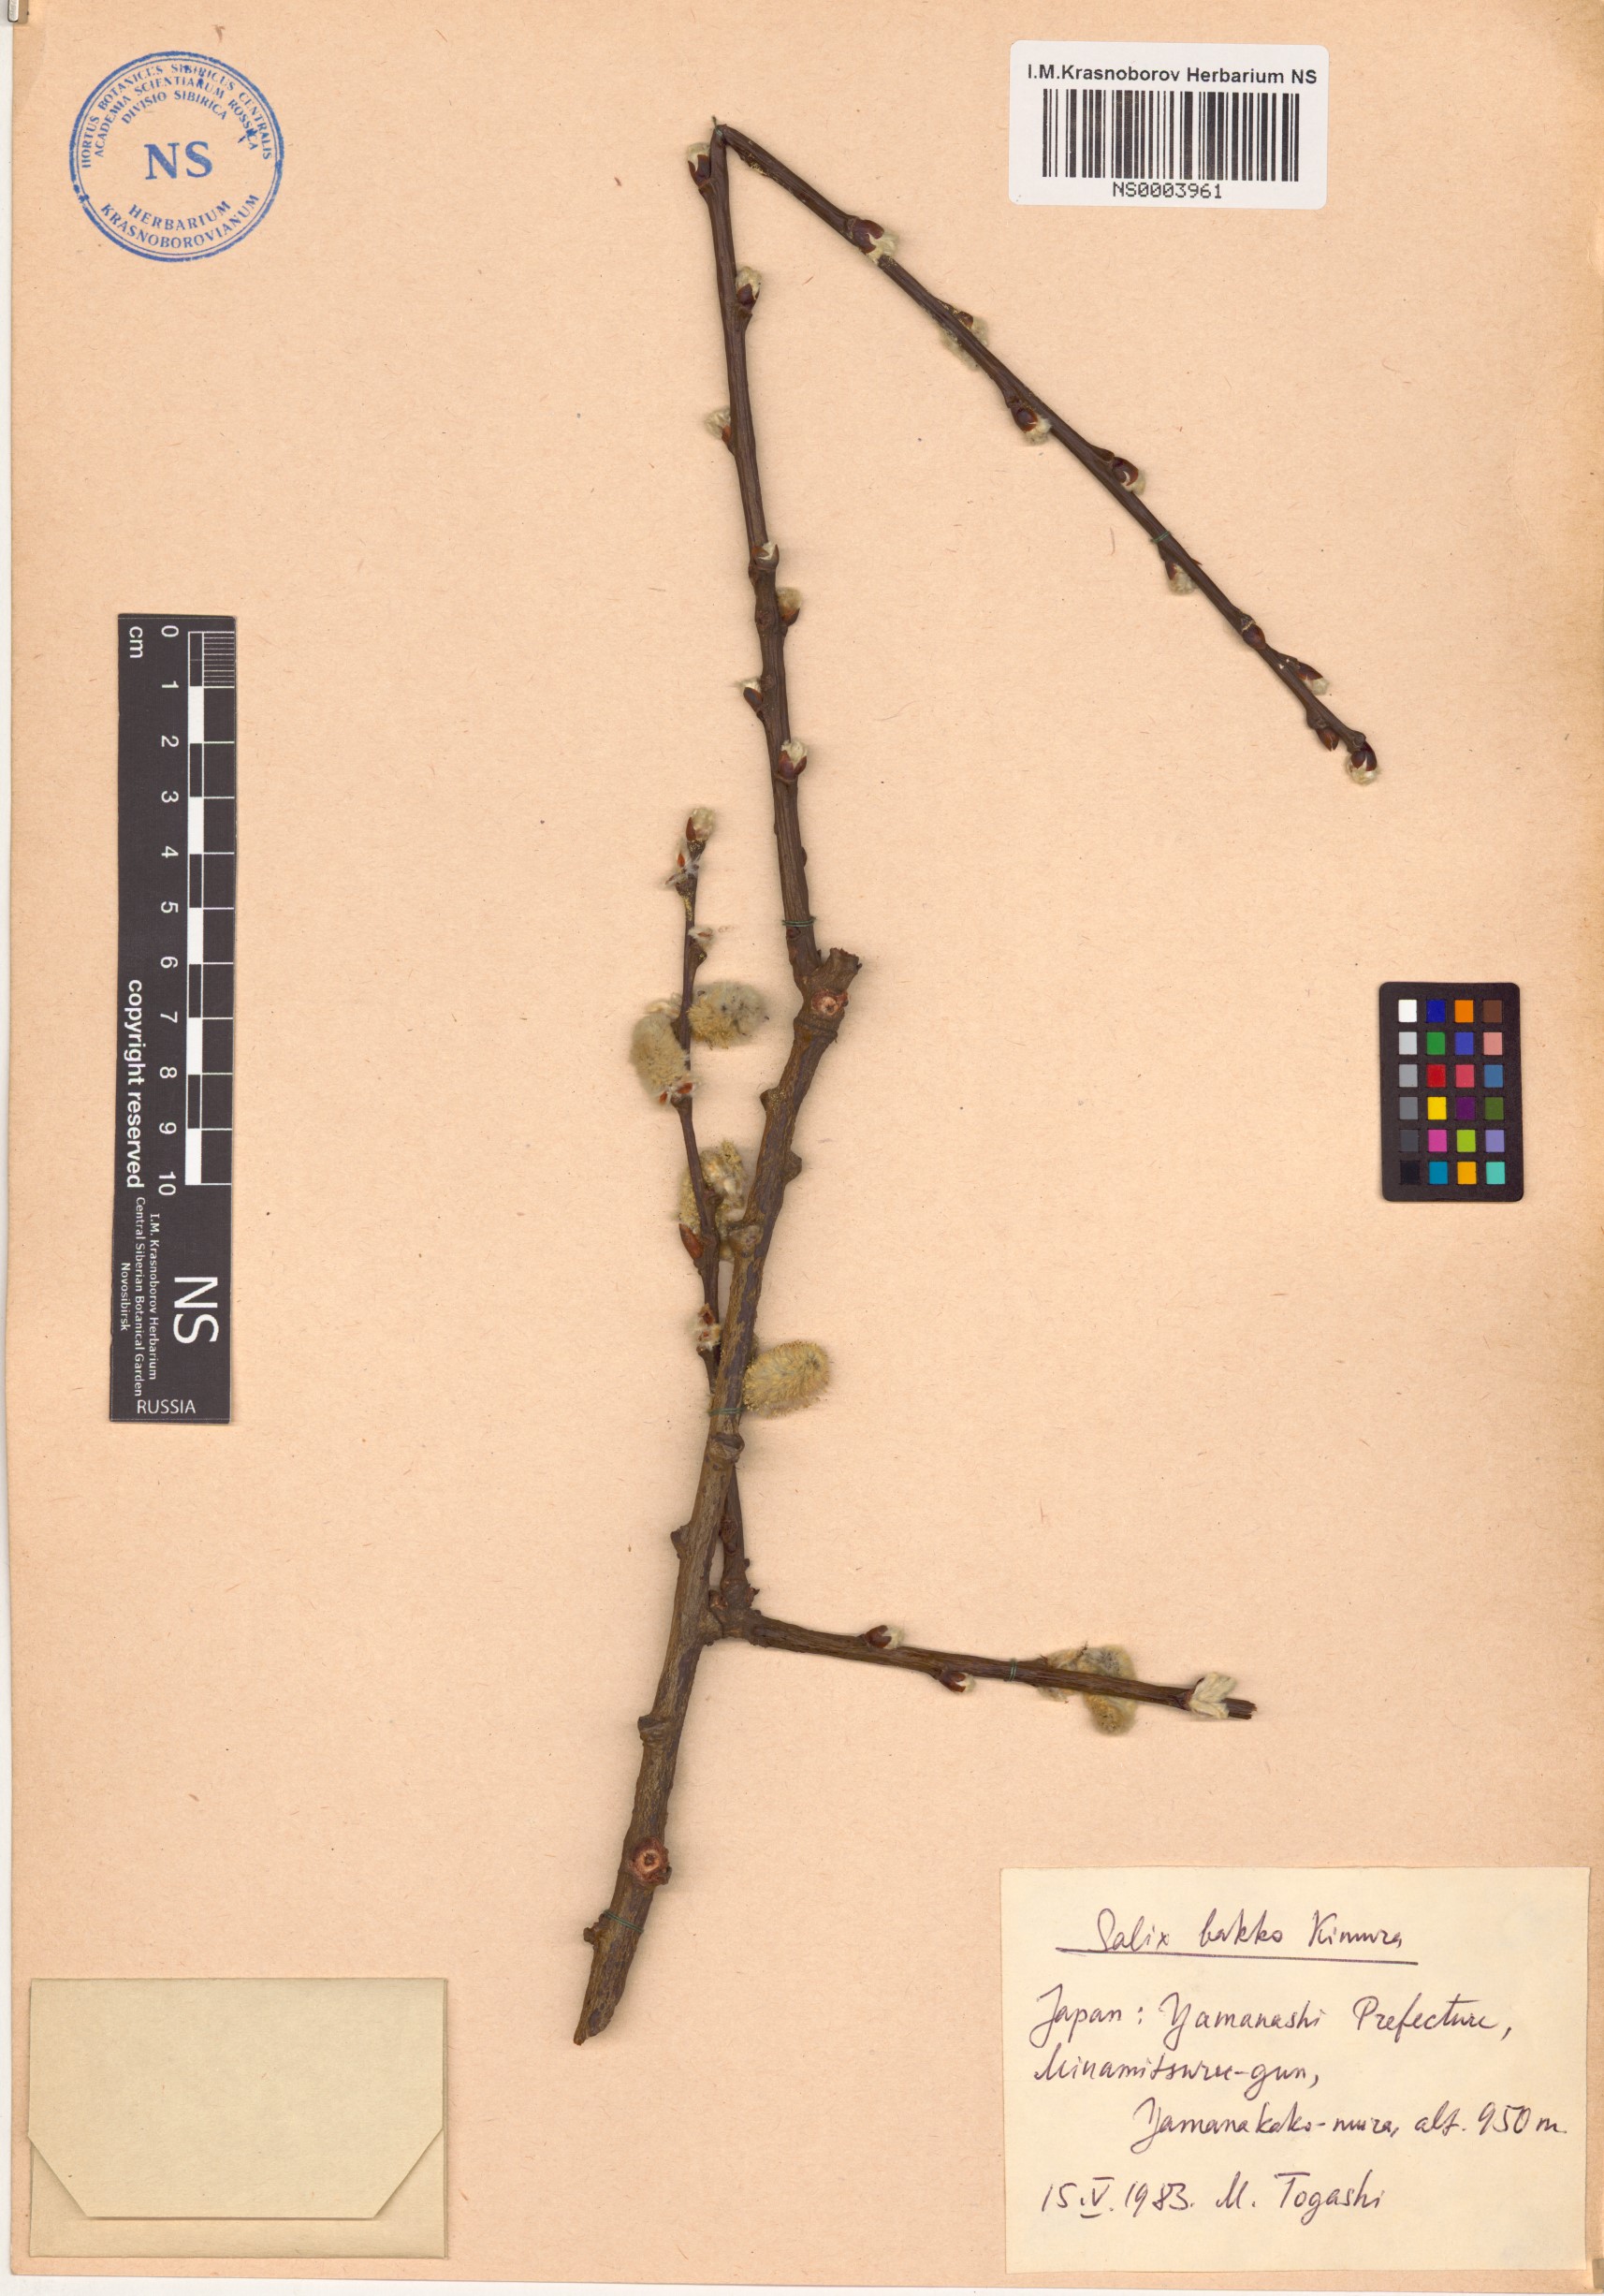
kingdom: Plantae
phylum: Tracheophyta
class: Magnoliopsida
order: Malpighiales
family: Salicaceae
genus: Salix
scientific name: Salix caprea
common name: Goat willow
